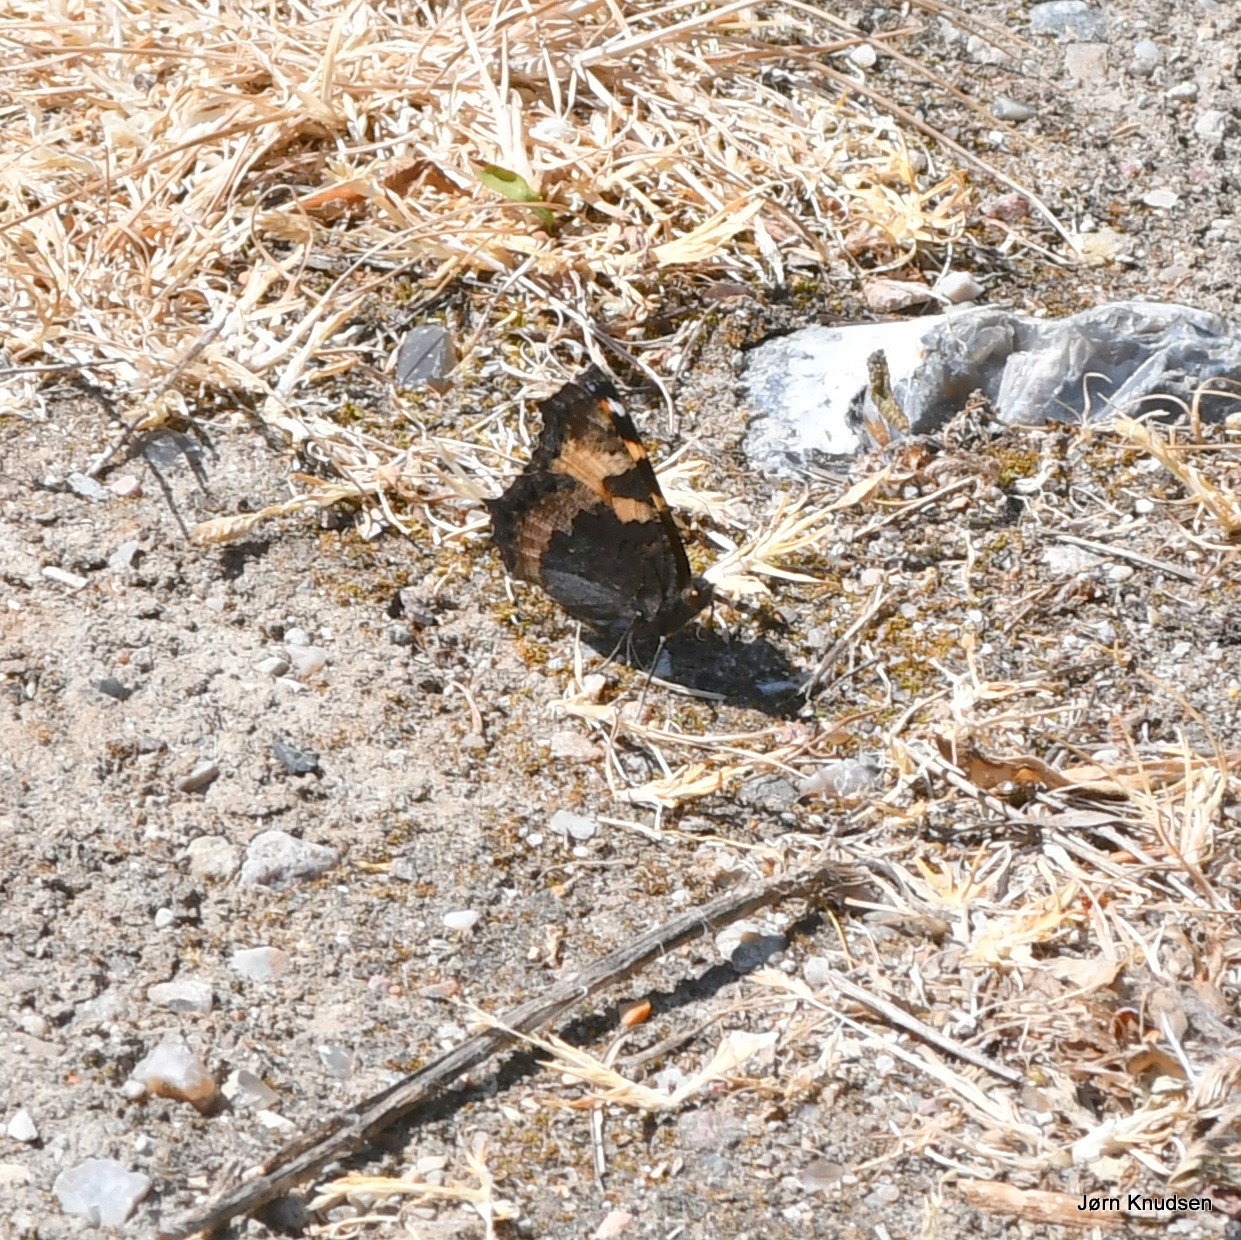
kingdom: Animalia
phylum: Arthropoda
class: Insecta
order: Lepidoptera
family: Nymphalidae
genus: Aglais
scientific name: Aglais urticae
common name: Nældens takvinge
